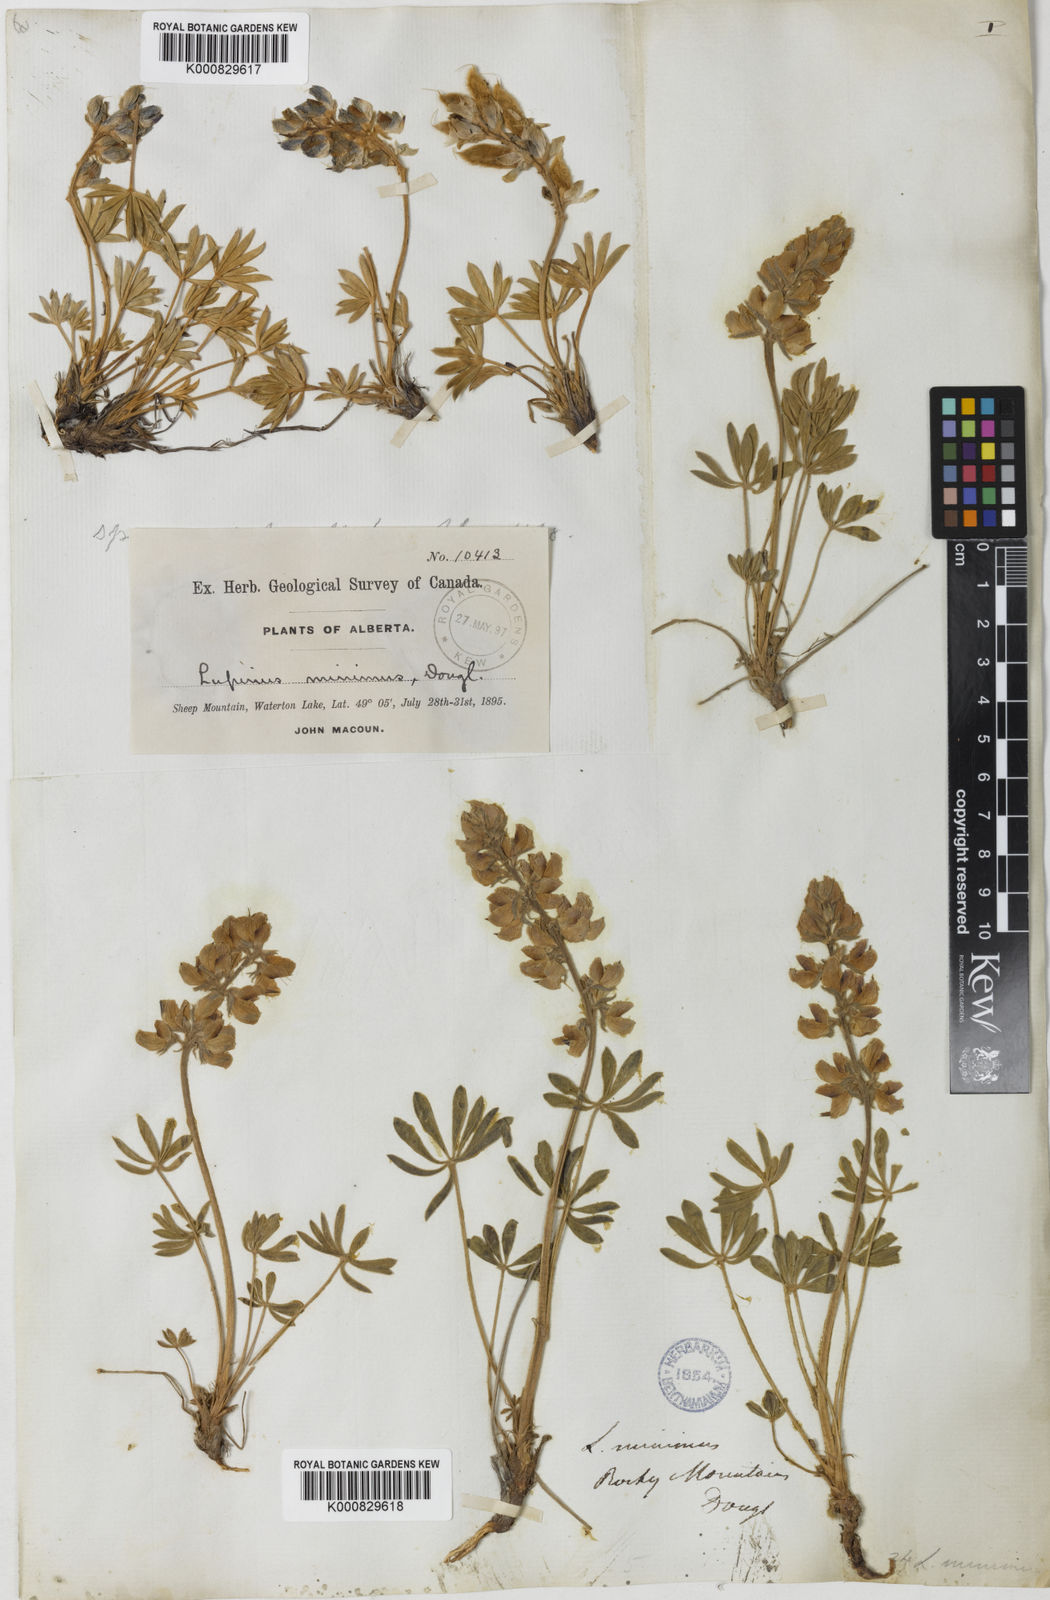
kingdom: Plantae
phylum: Tracheophyta
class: Magnoliopsida
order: Fabales
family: Fabaceae
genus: Lupinus
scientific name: Lupinus
